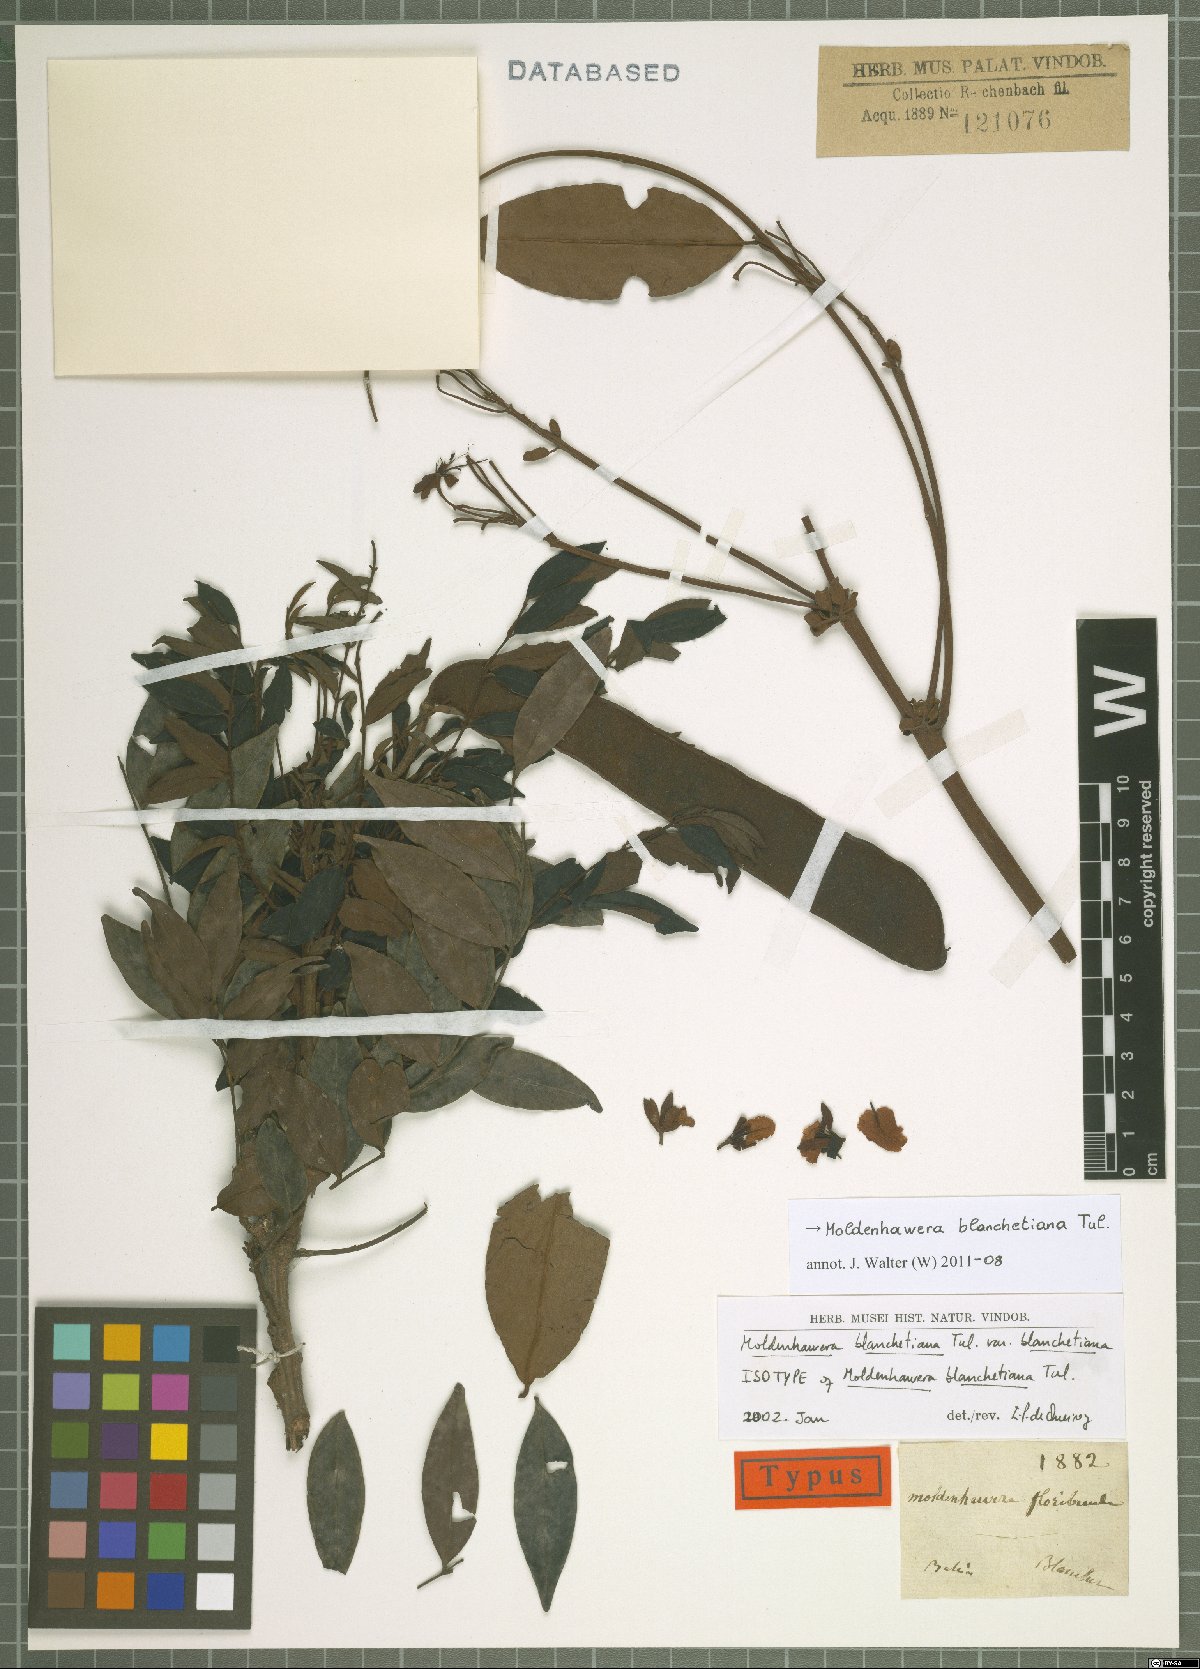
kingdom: Plantae
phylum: Tracheophyta
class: Magnoliopsida
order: Fabales
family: Fabaceae
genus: Moldenhawera
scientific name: Moldenhawera blanchetiana
